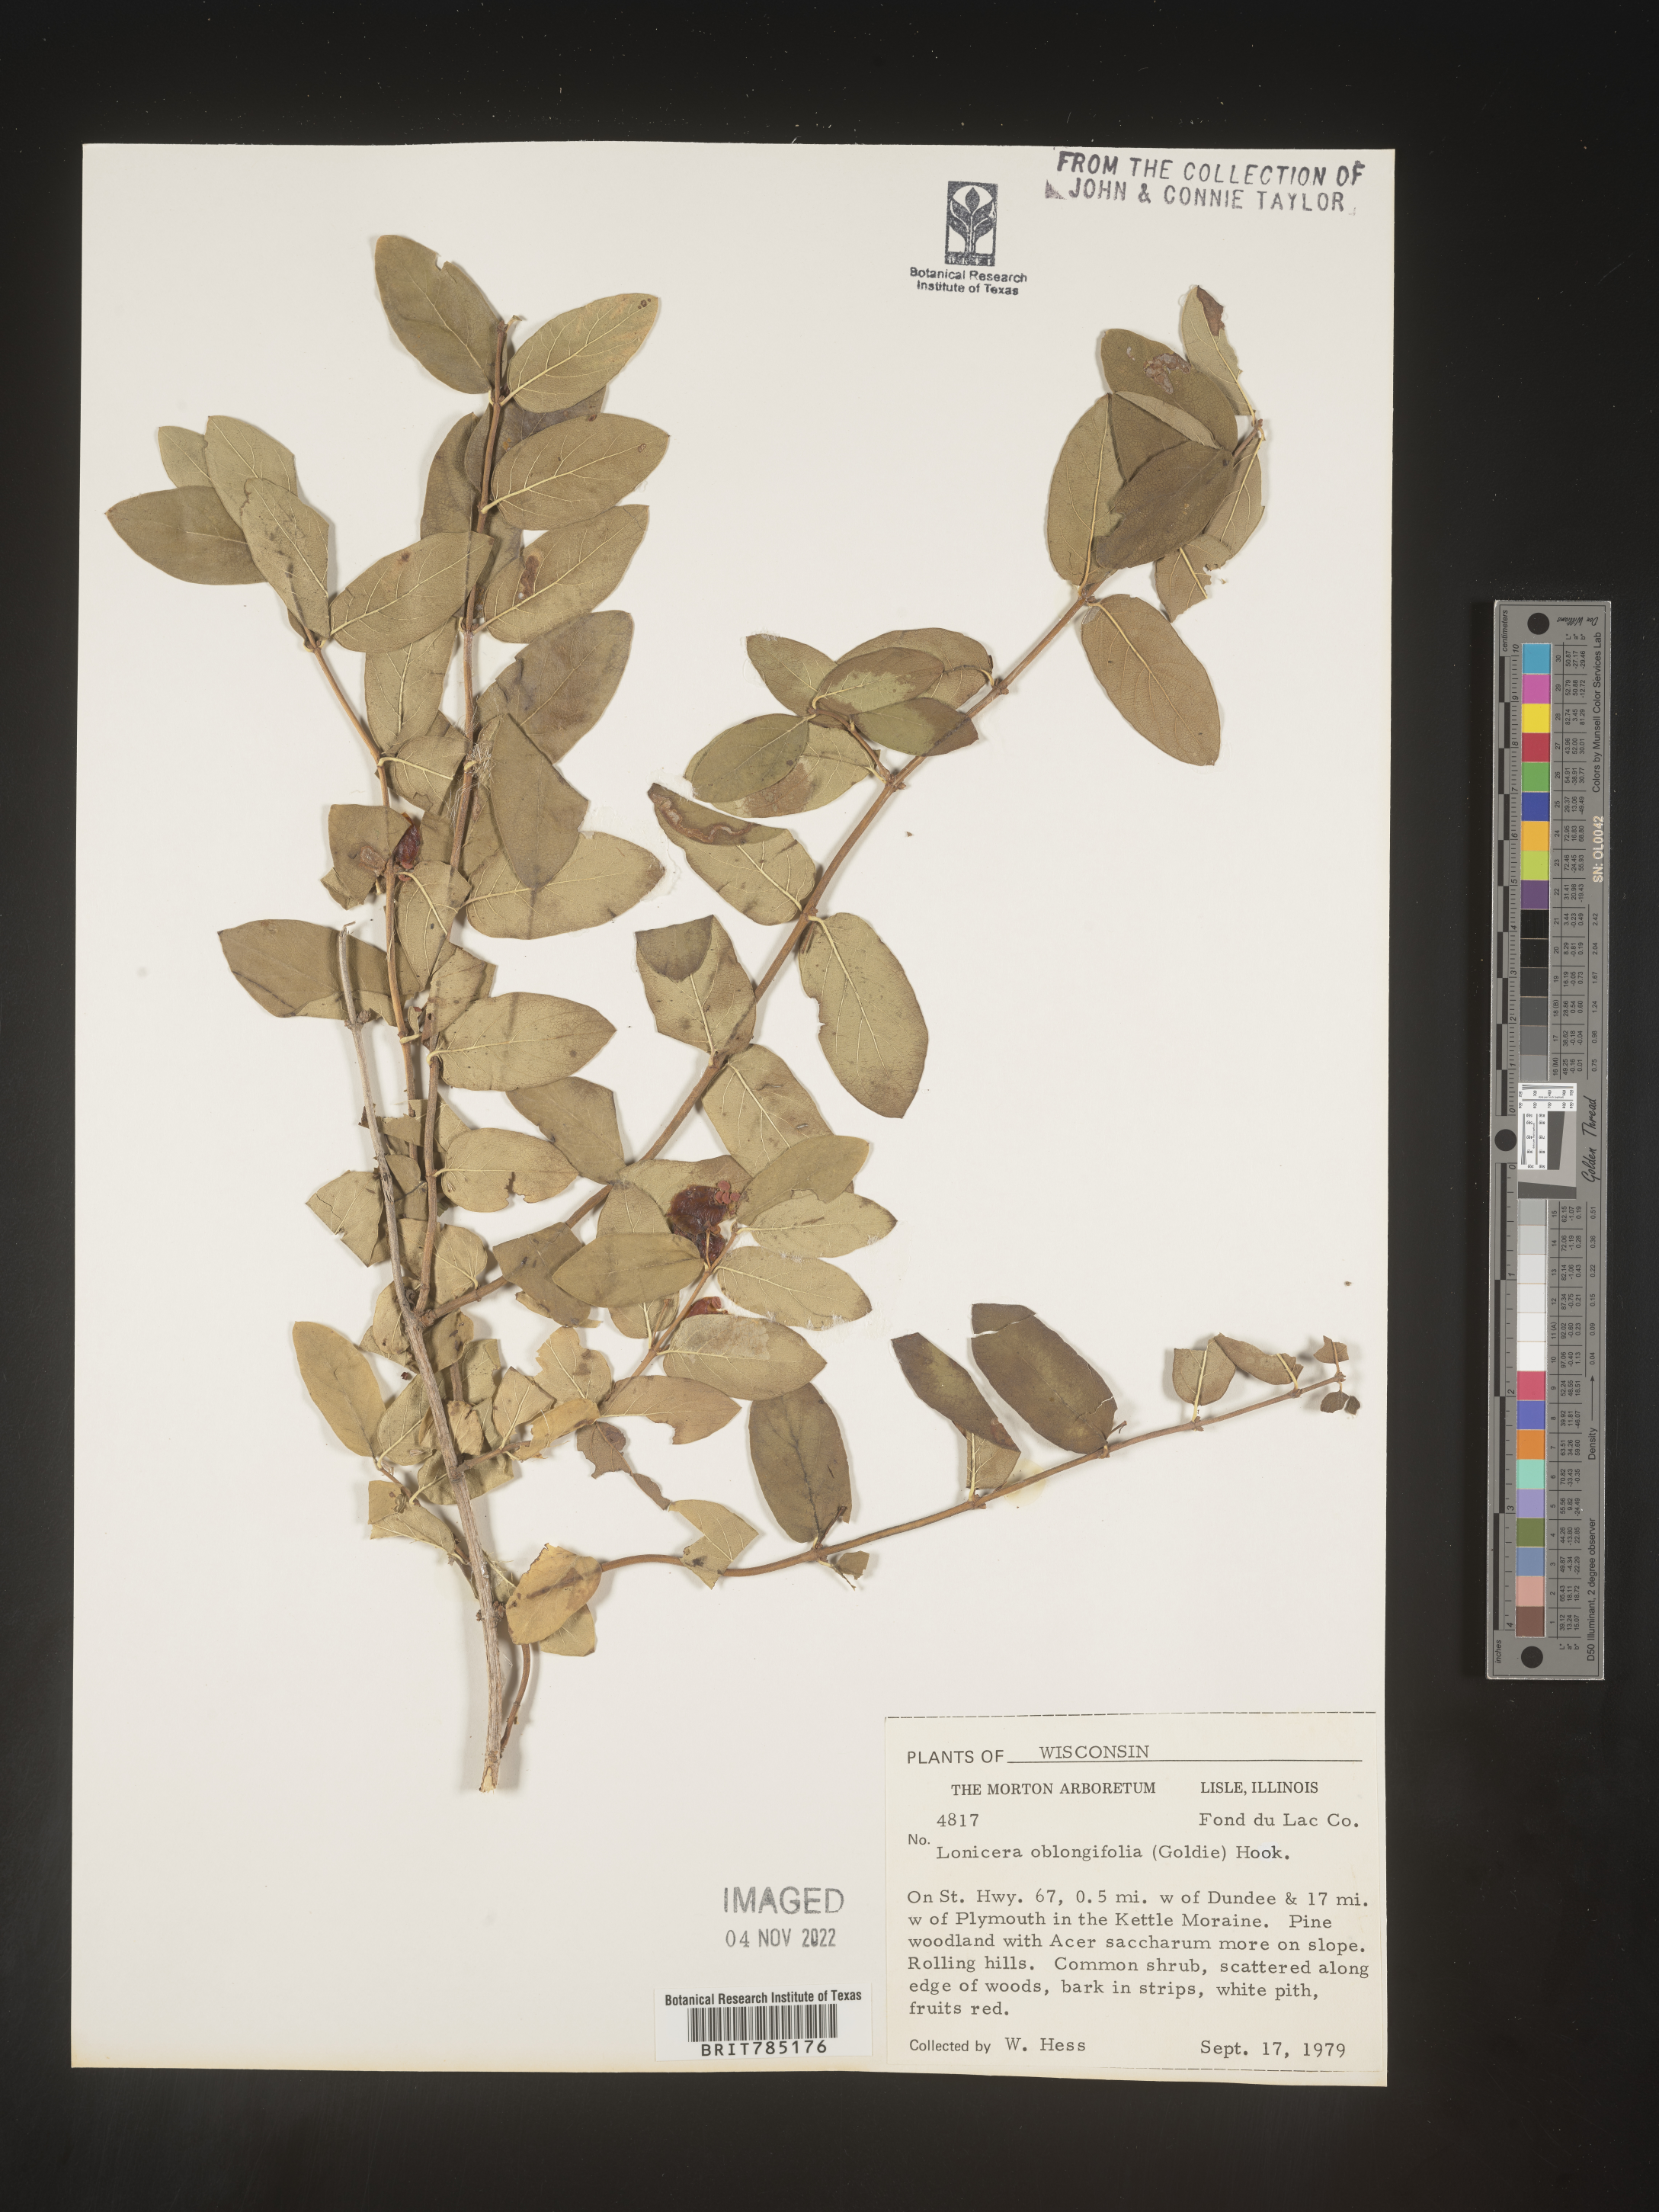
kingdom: Plantae
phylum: Tracheophyta
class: Magnoliopsida
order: Dipsacales
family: Caprifoliaceae
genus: Lonicera
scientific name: Lonicera
